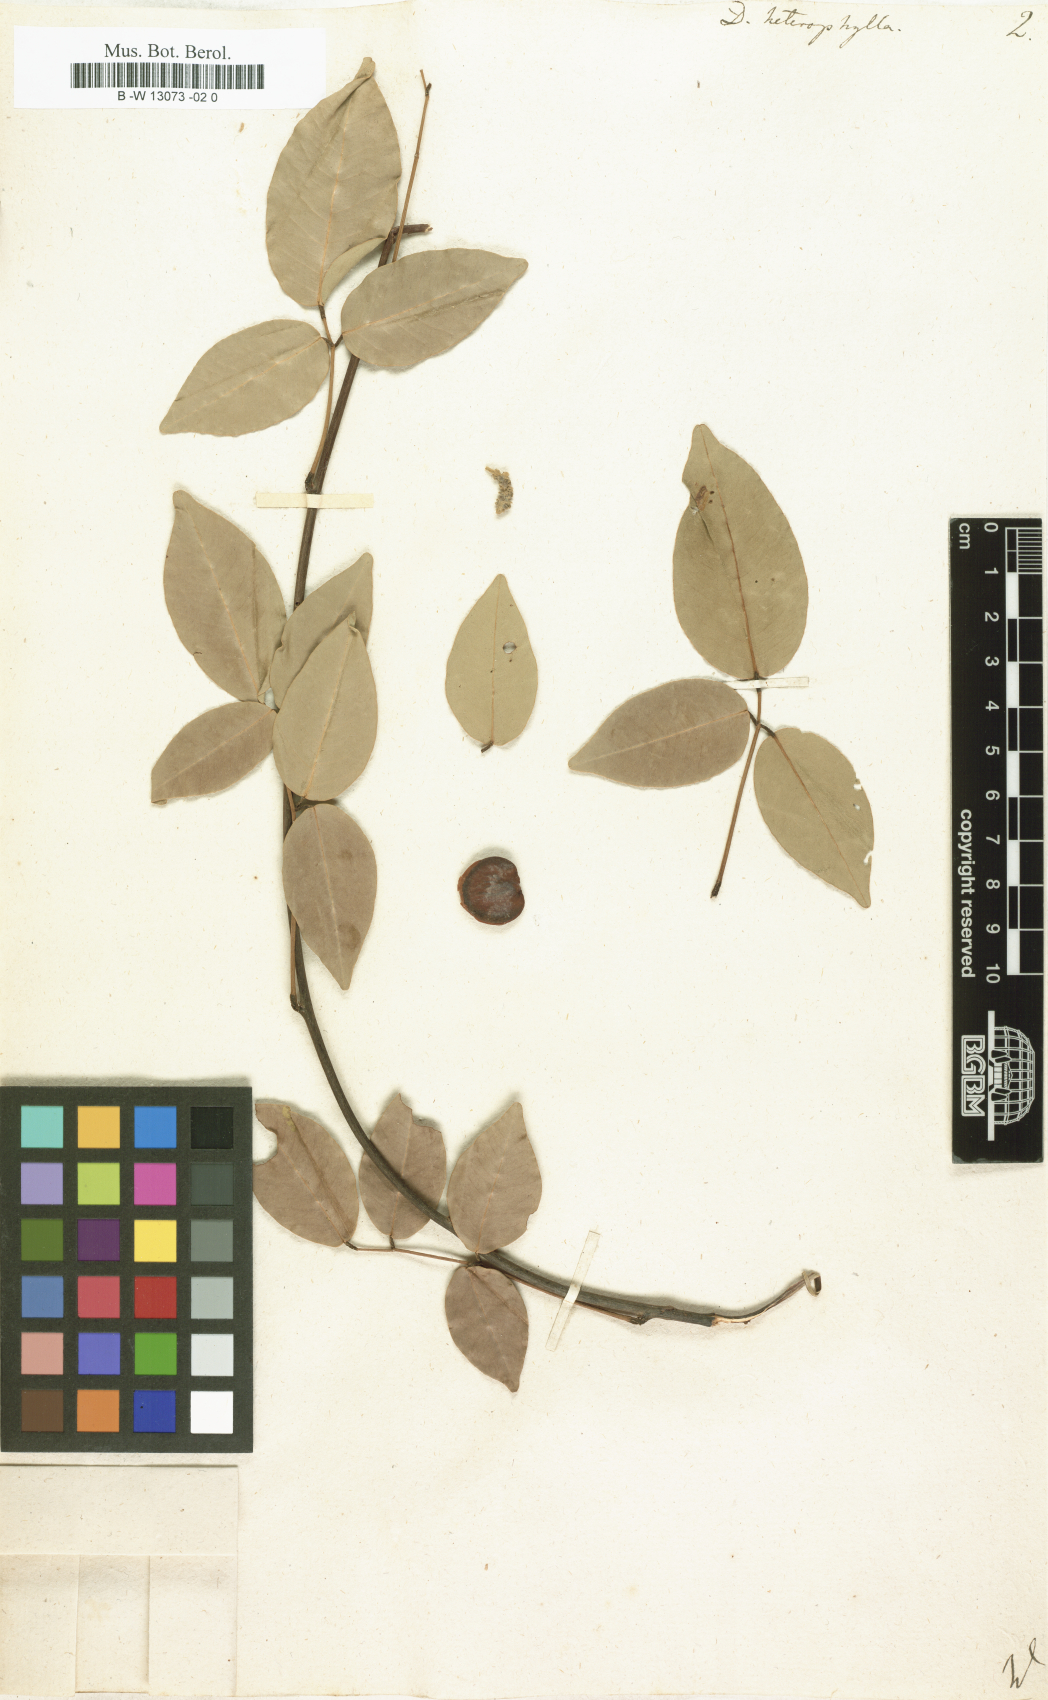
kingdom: Plantae
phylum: Tracheophyta
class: Magnoliopsida
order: Fabales
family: Fabaceae
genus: Derris
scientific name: Derris trifoliata
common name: Three-leaf derris
